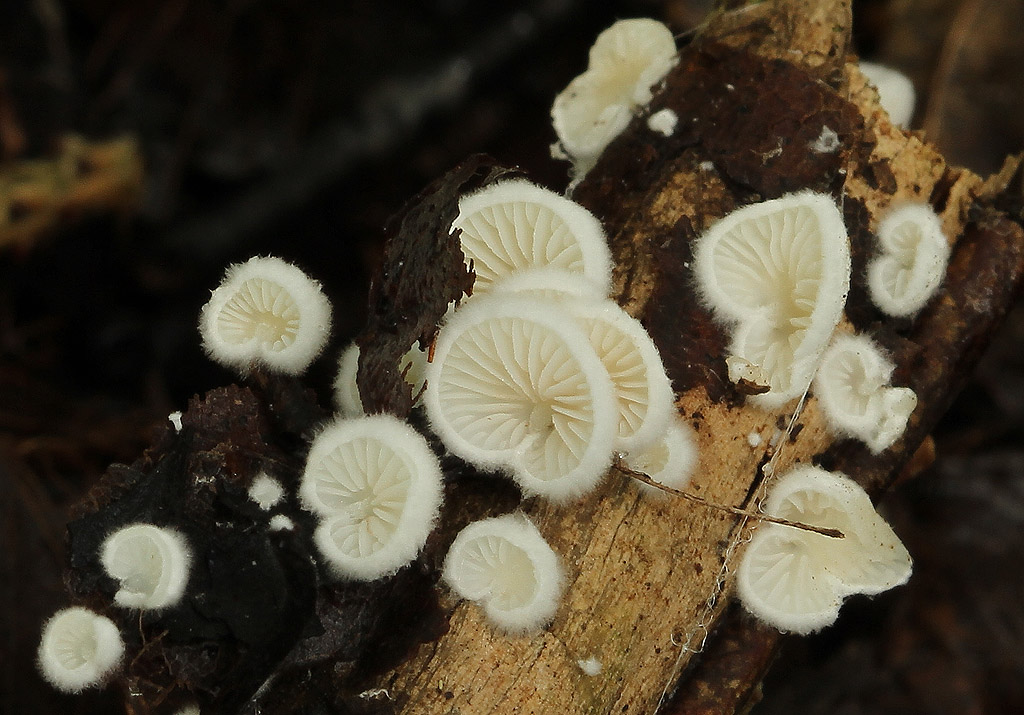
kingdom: Fungi
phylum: Basidiomycota
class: Agaricomycetes
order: Agaricales
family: Crepidotaceae
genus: Crepidotus
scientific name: Crepidotus cesatii
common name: almindelig muslingesvamp
